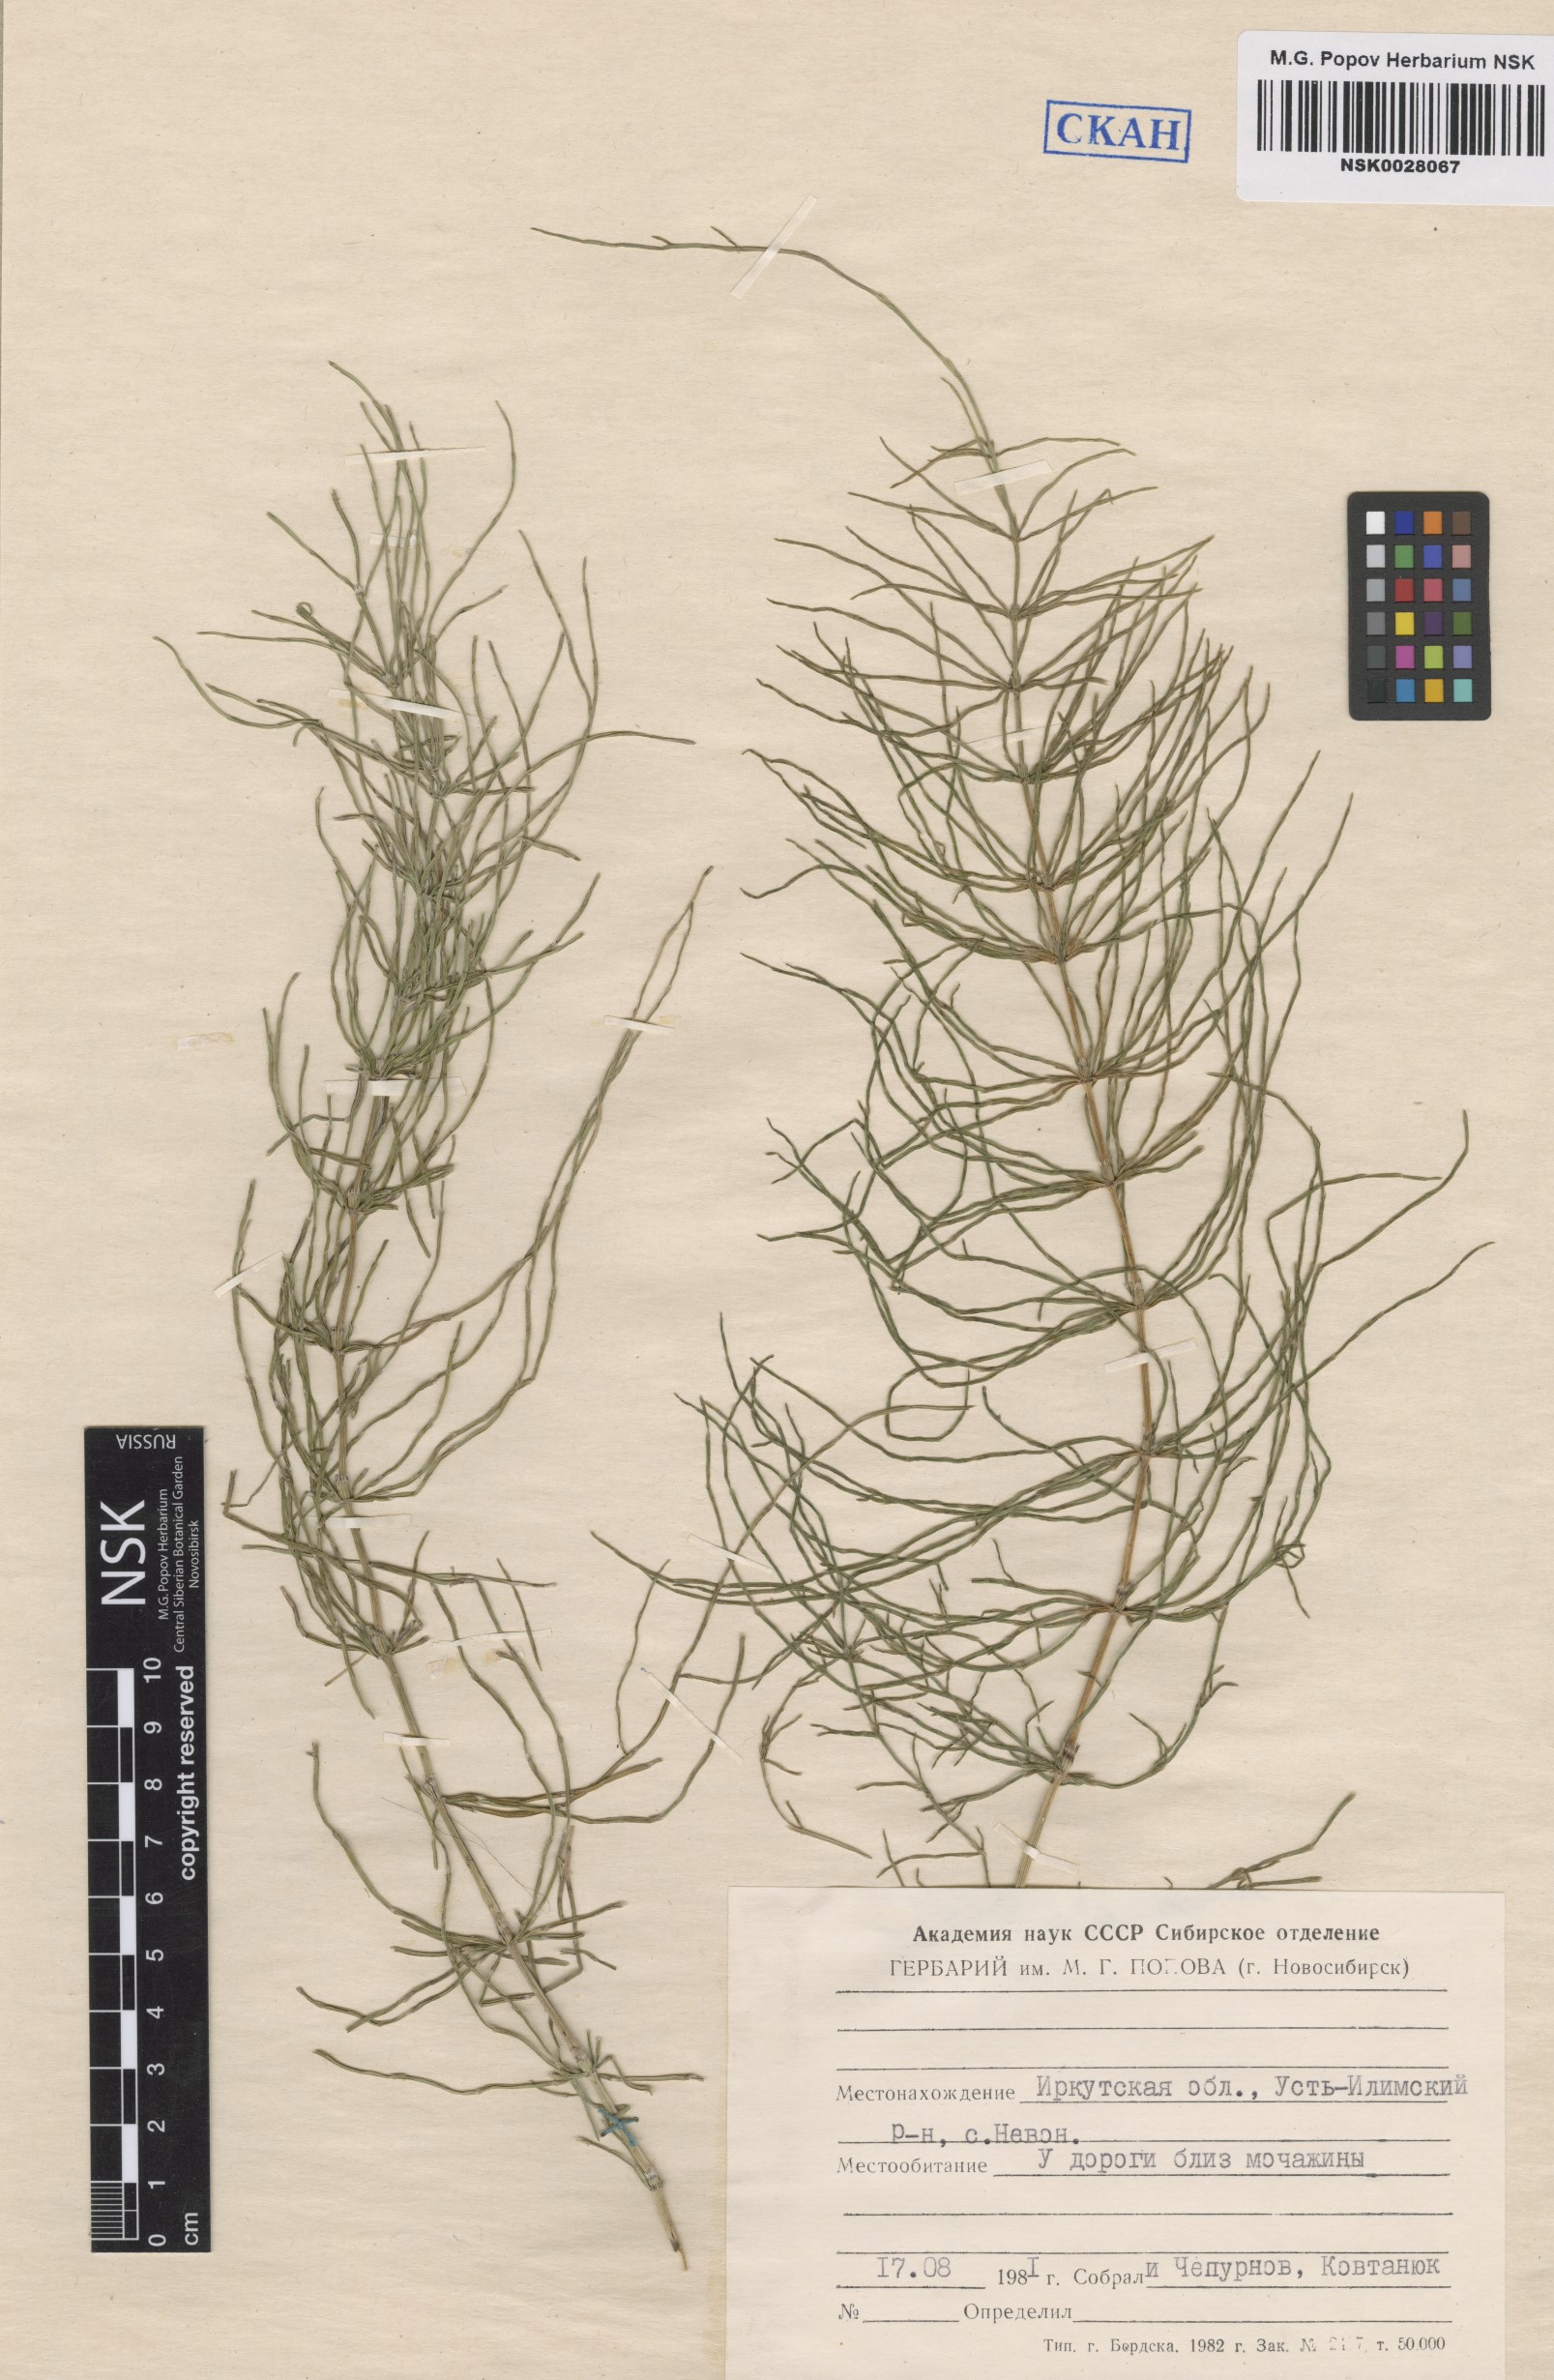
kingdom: Plantae
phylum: Tracheophyta
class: Polypodiopsida
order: Equisetales
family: Equisetaceae
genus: Equisetum
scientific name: Equisetum pratense
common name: Meadow horsetail
